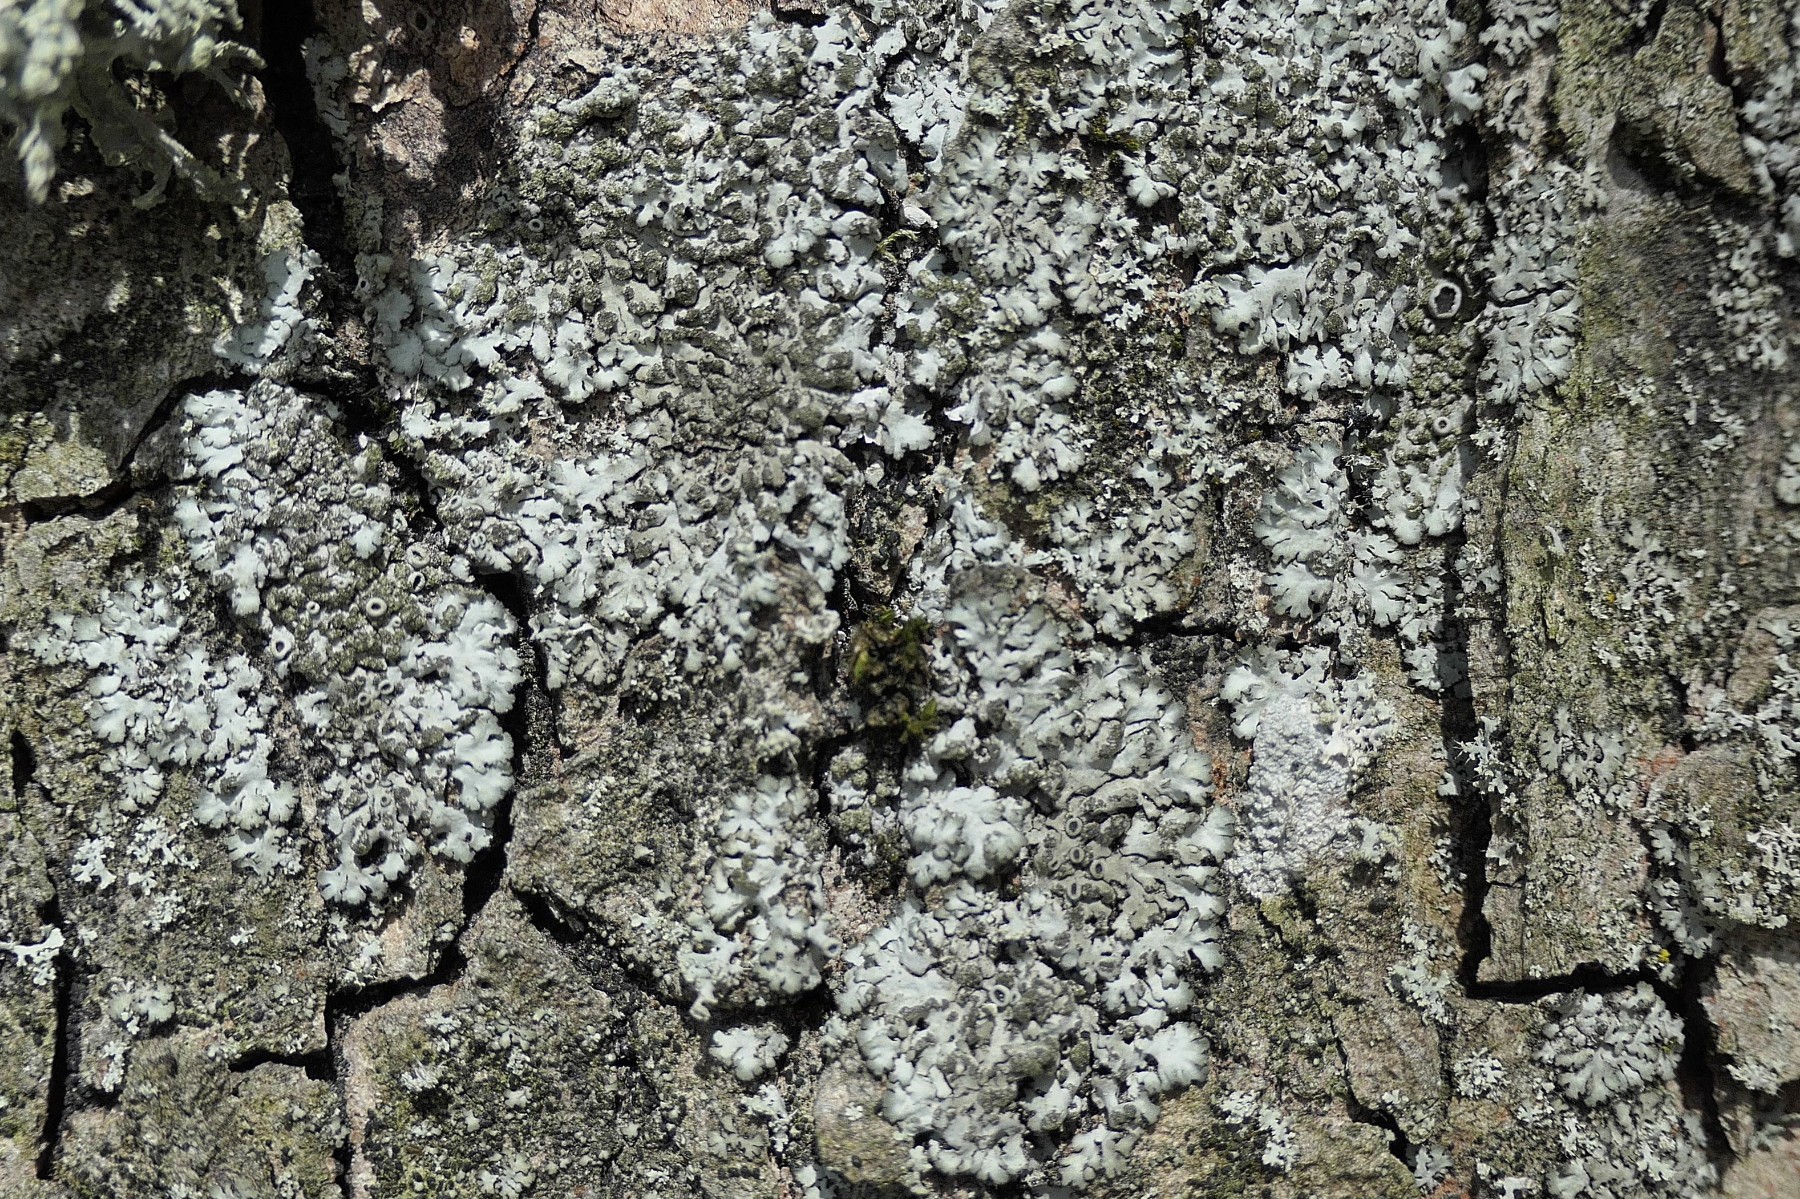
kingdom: Fungi
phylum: Ascomycota
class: Lecanoromycetes
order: Caliciales
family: Physciaceae
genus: Phaeophyscia
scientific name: Phaeophyscia orbicularis
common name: grågrøn rosetlav
